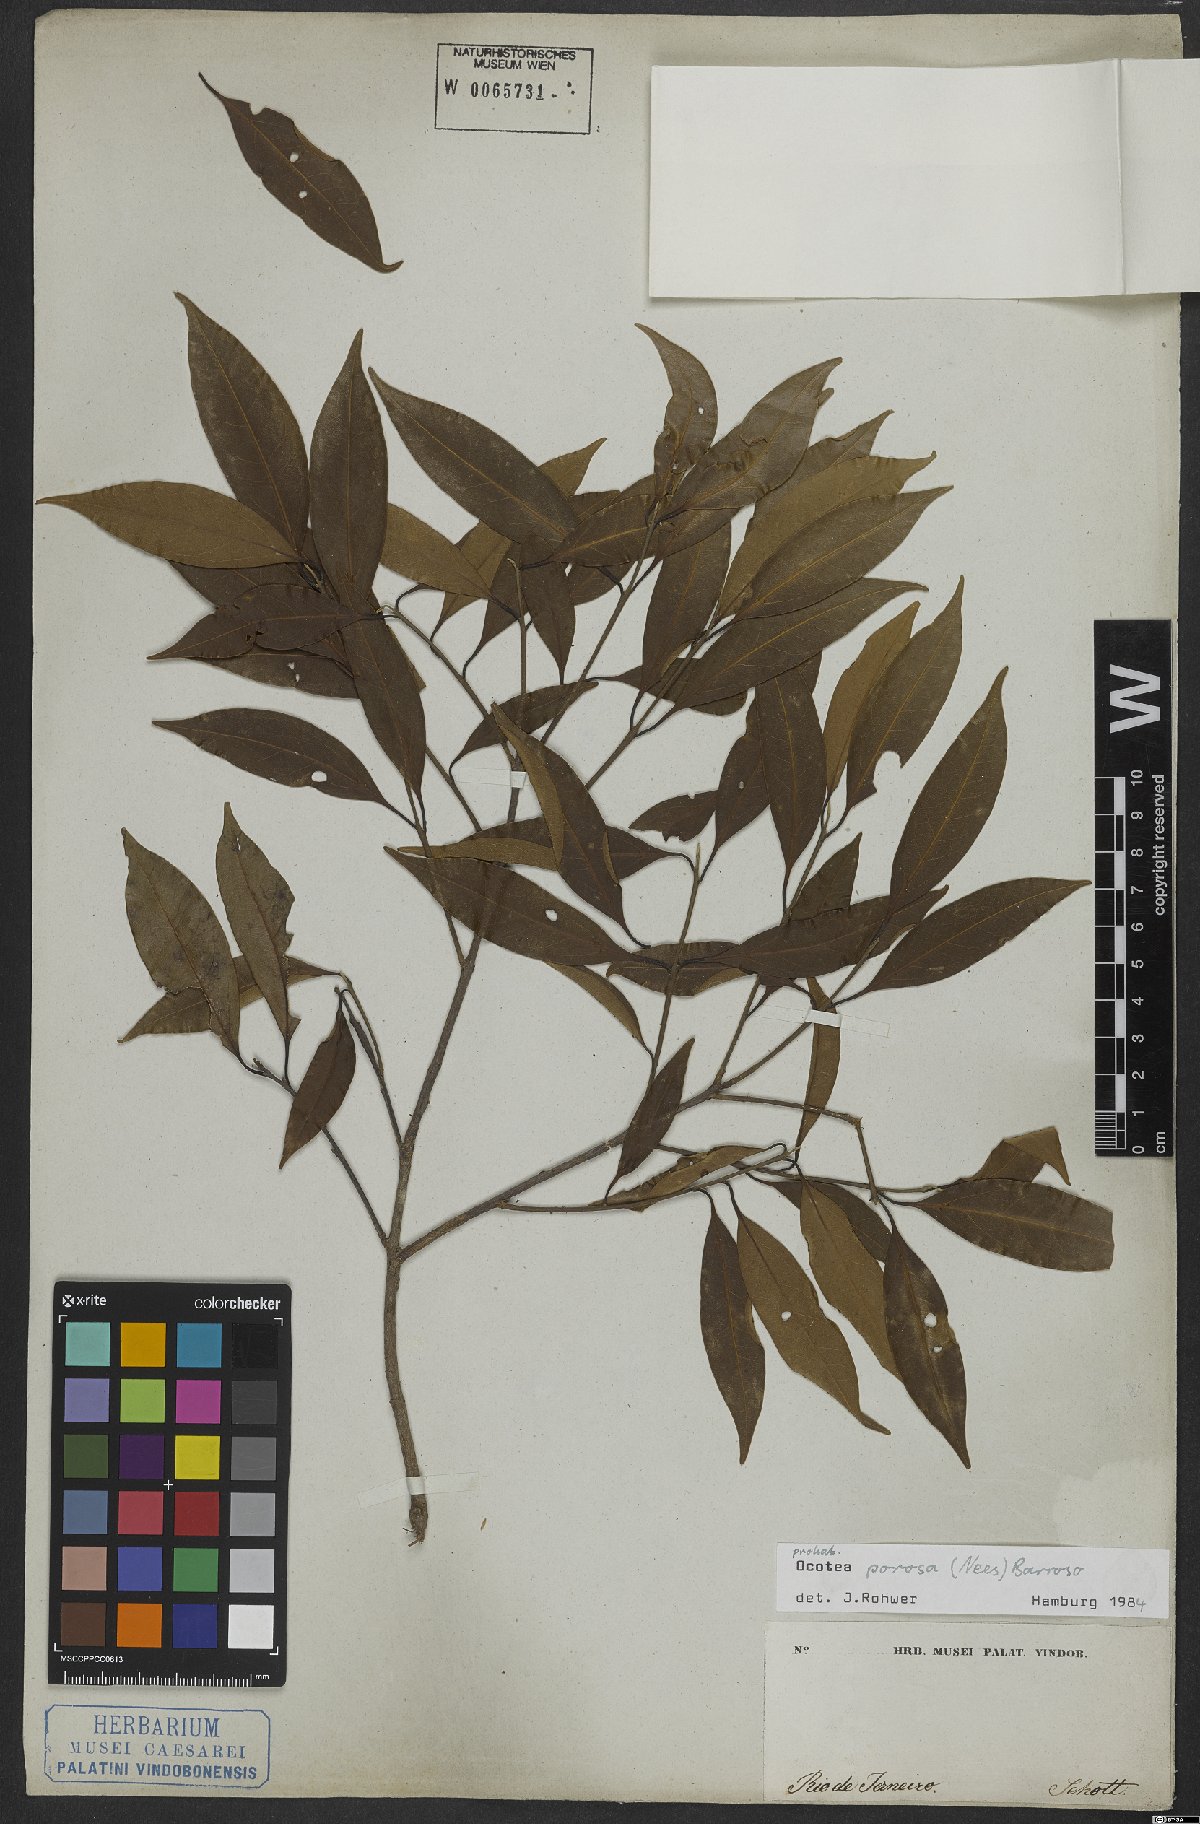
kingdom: Plantae
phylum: Tracheophyta
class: Magnoliopsida
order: Laurales
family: Lauraceae
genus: Ocotea
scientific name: Ocotea porosa
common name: Brazilian-walnut
